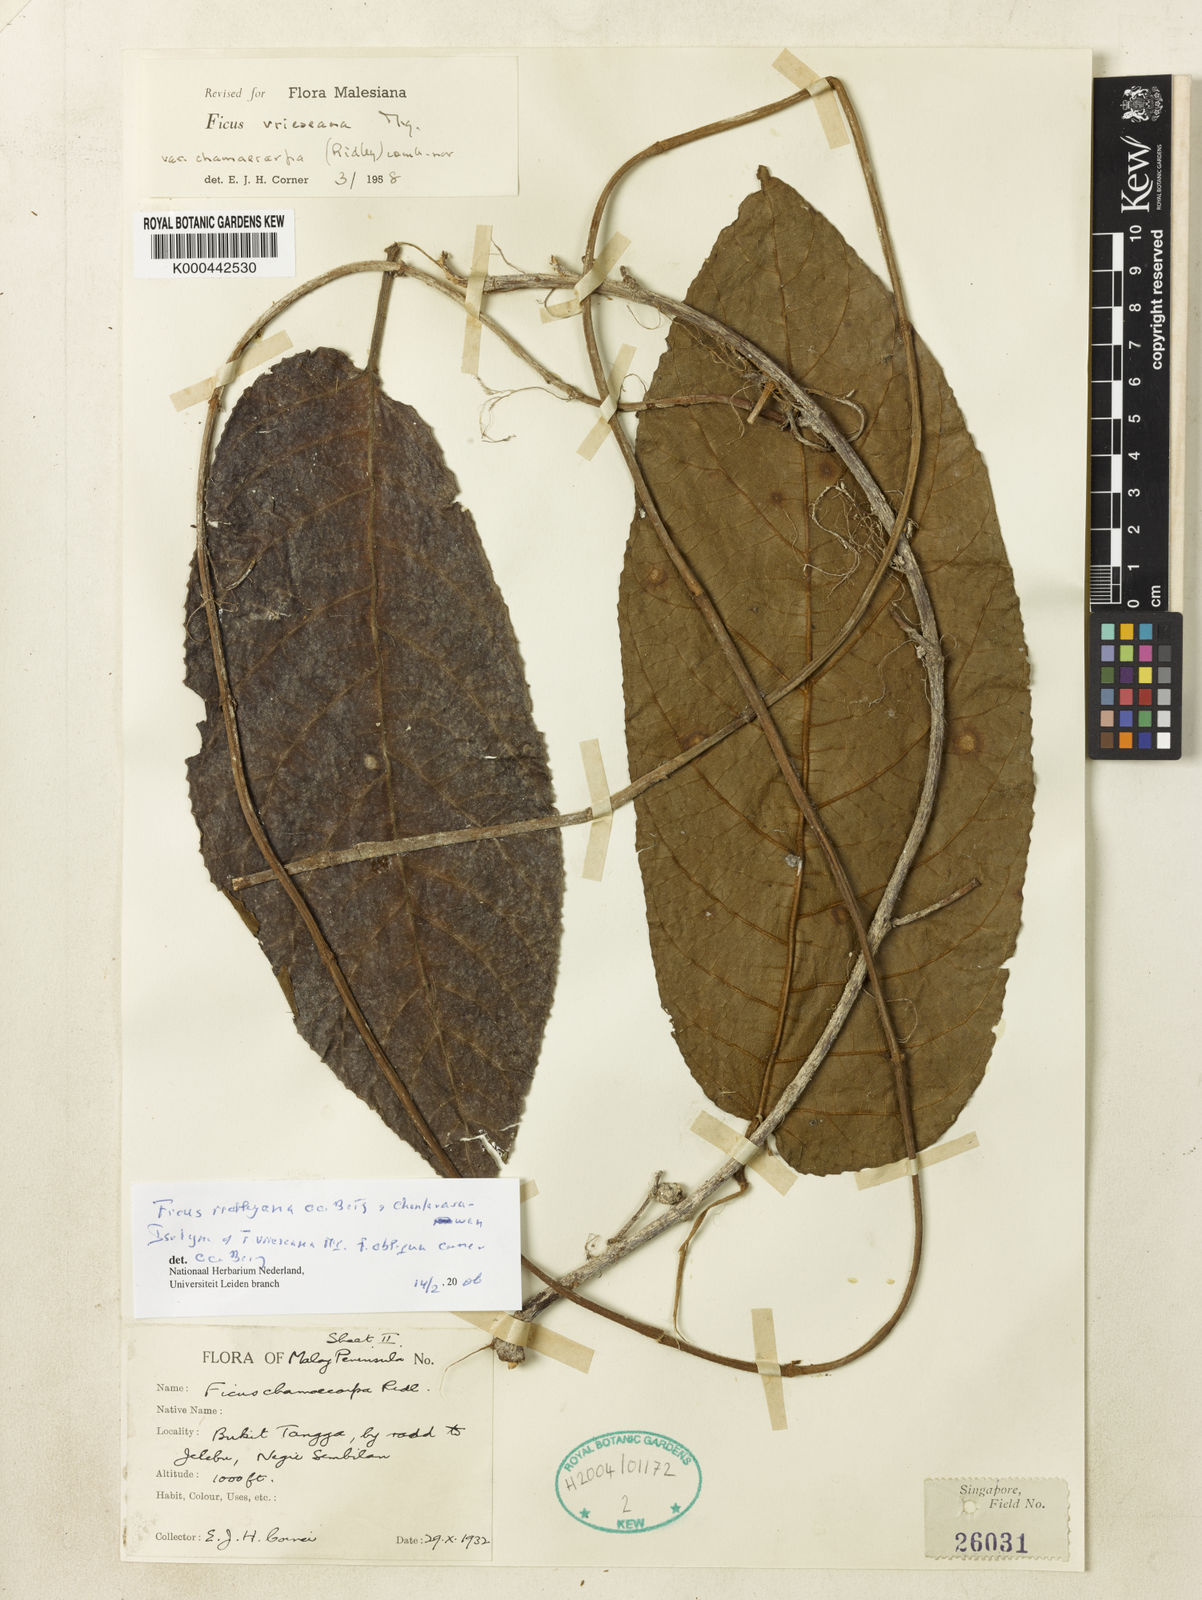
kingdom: Plantae
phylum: Tracheophyta
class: Magnoliopsida
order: Rosales
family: Moraceae
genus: Ficus
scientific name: Ficus ridleyana
